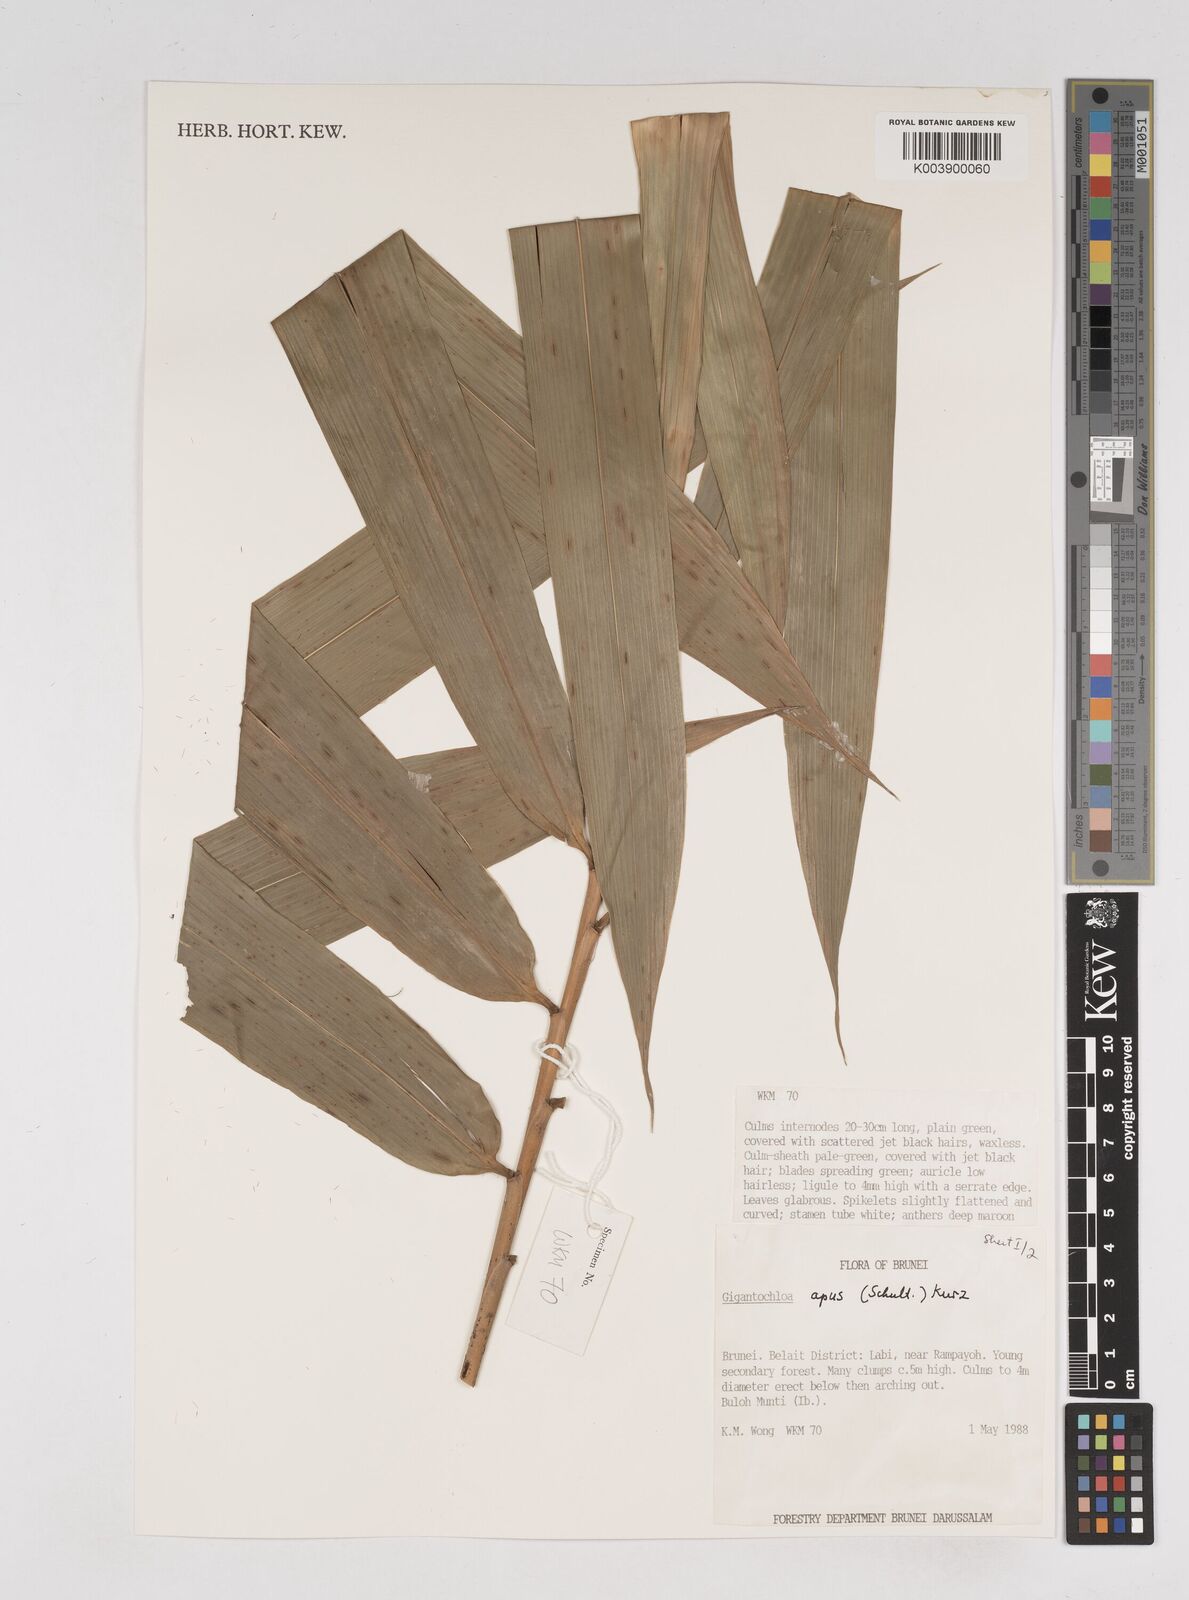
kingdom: Plantae
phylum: Tracheophyta
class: Liliopsida
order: Poales
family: Poaceae
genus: Gigantochloa
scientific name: Gigantochloa
